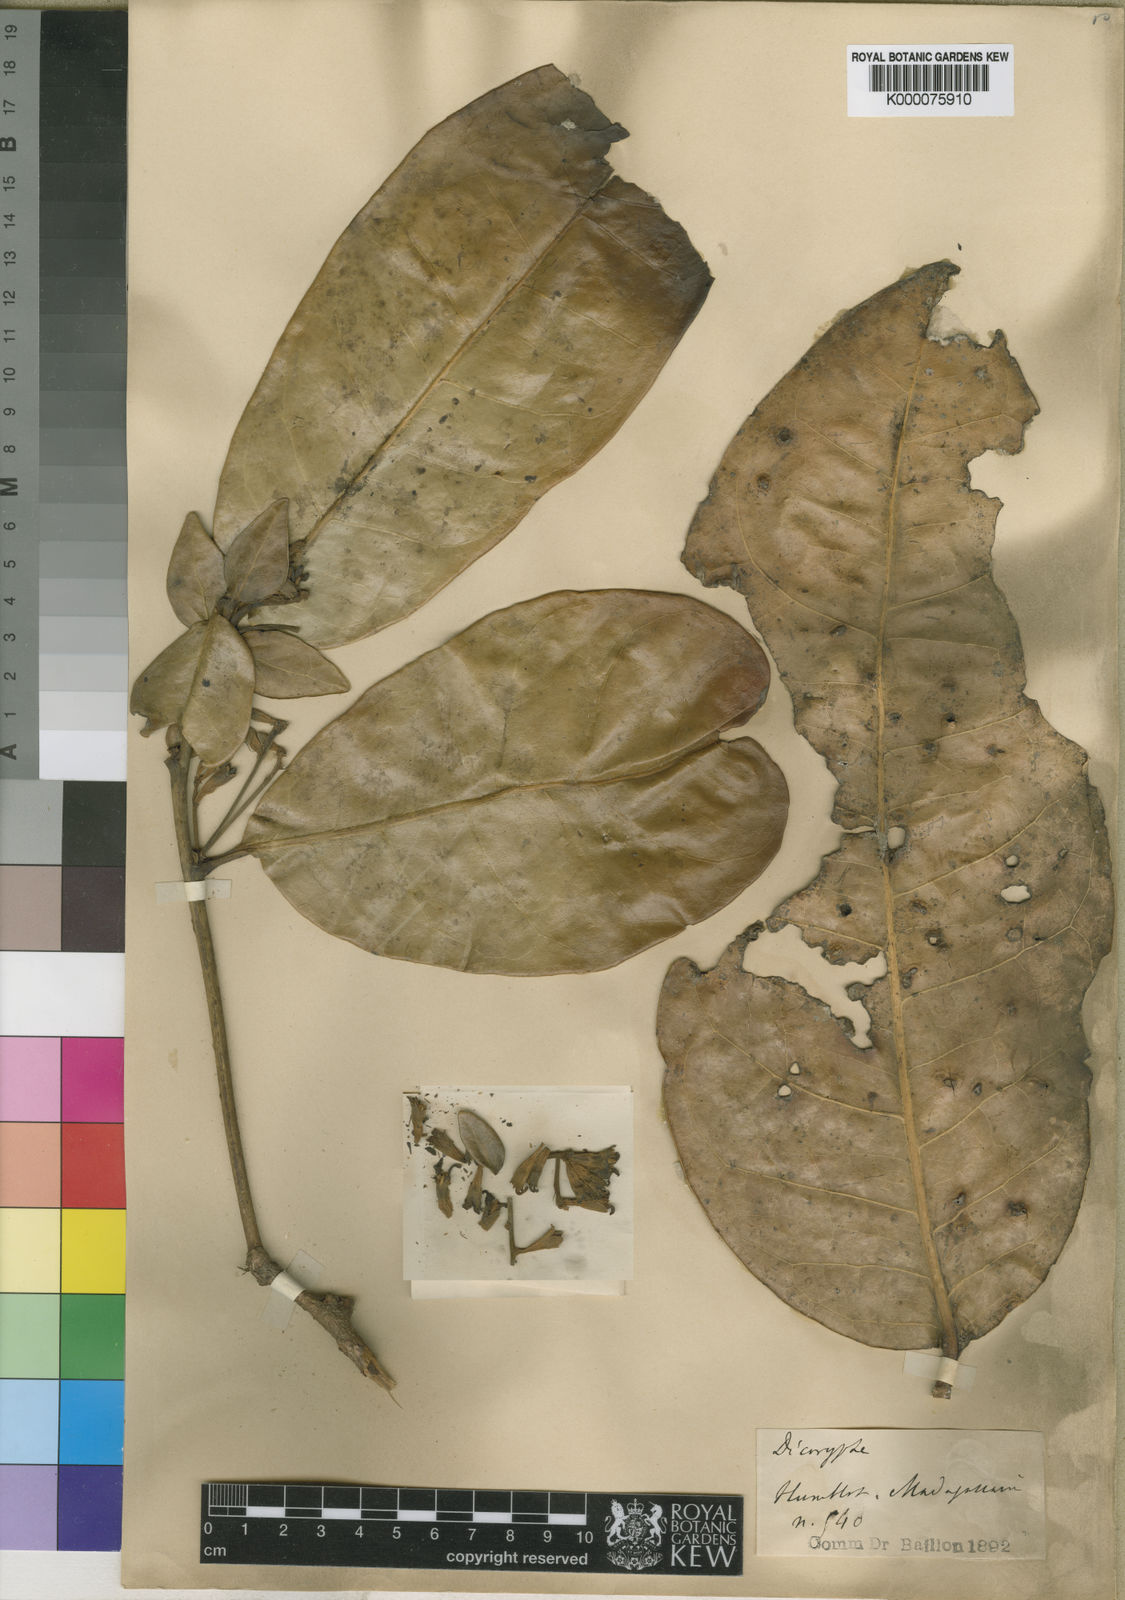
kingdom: Plantae
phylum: Tracheophyta
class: Magnoliopsida
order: Saxifragales
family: Hamamelidaceae
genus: Dicoryphe
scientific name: Dicoryphe macrophylla
